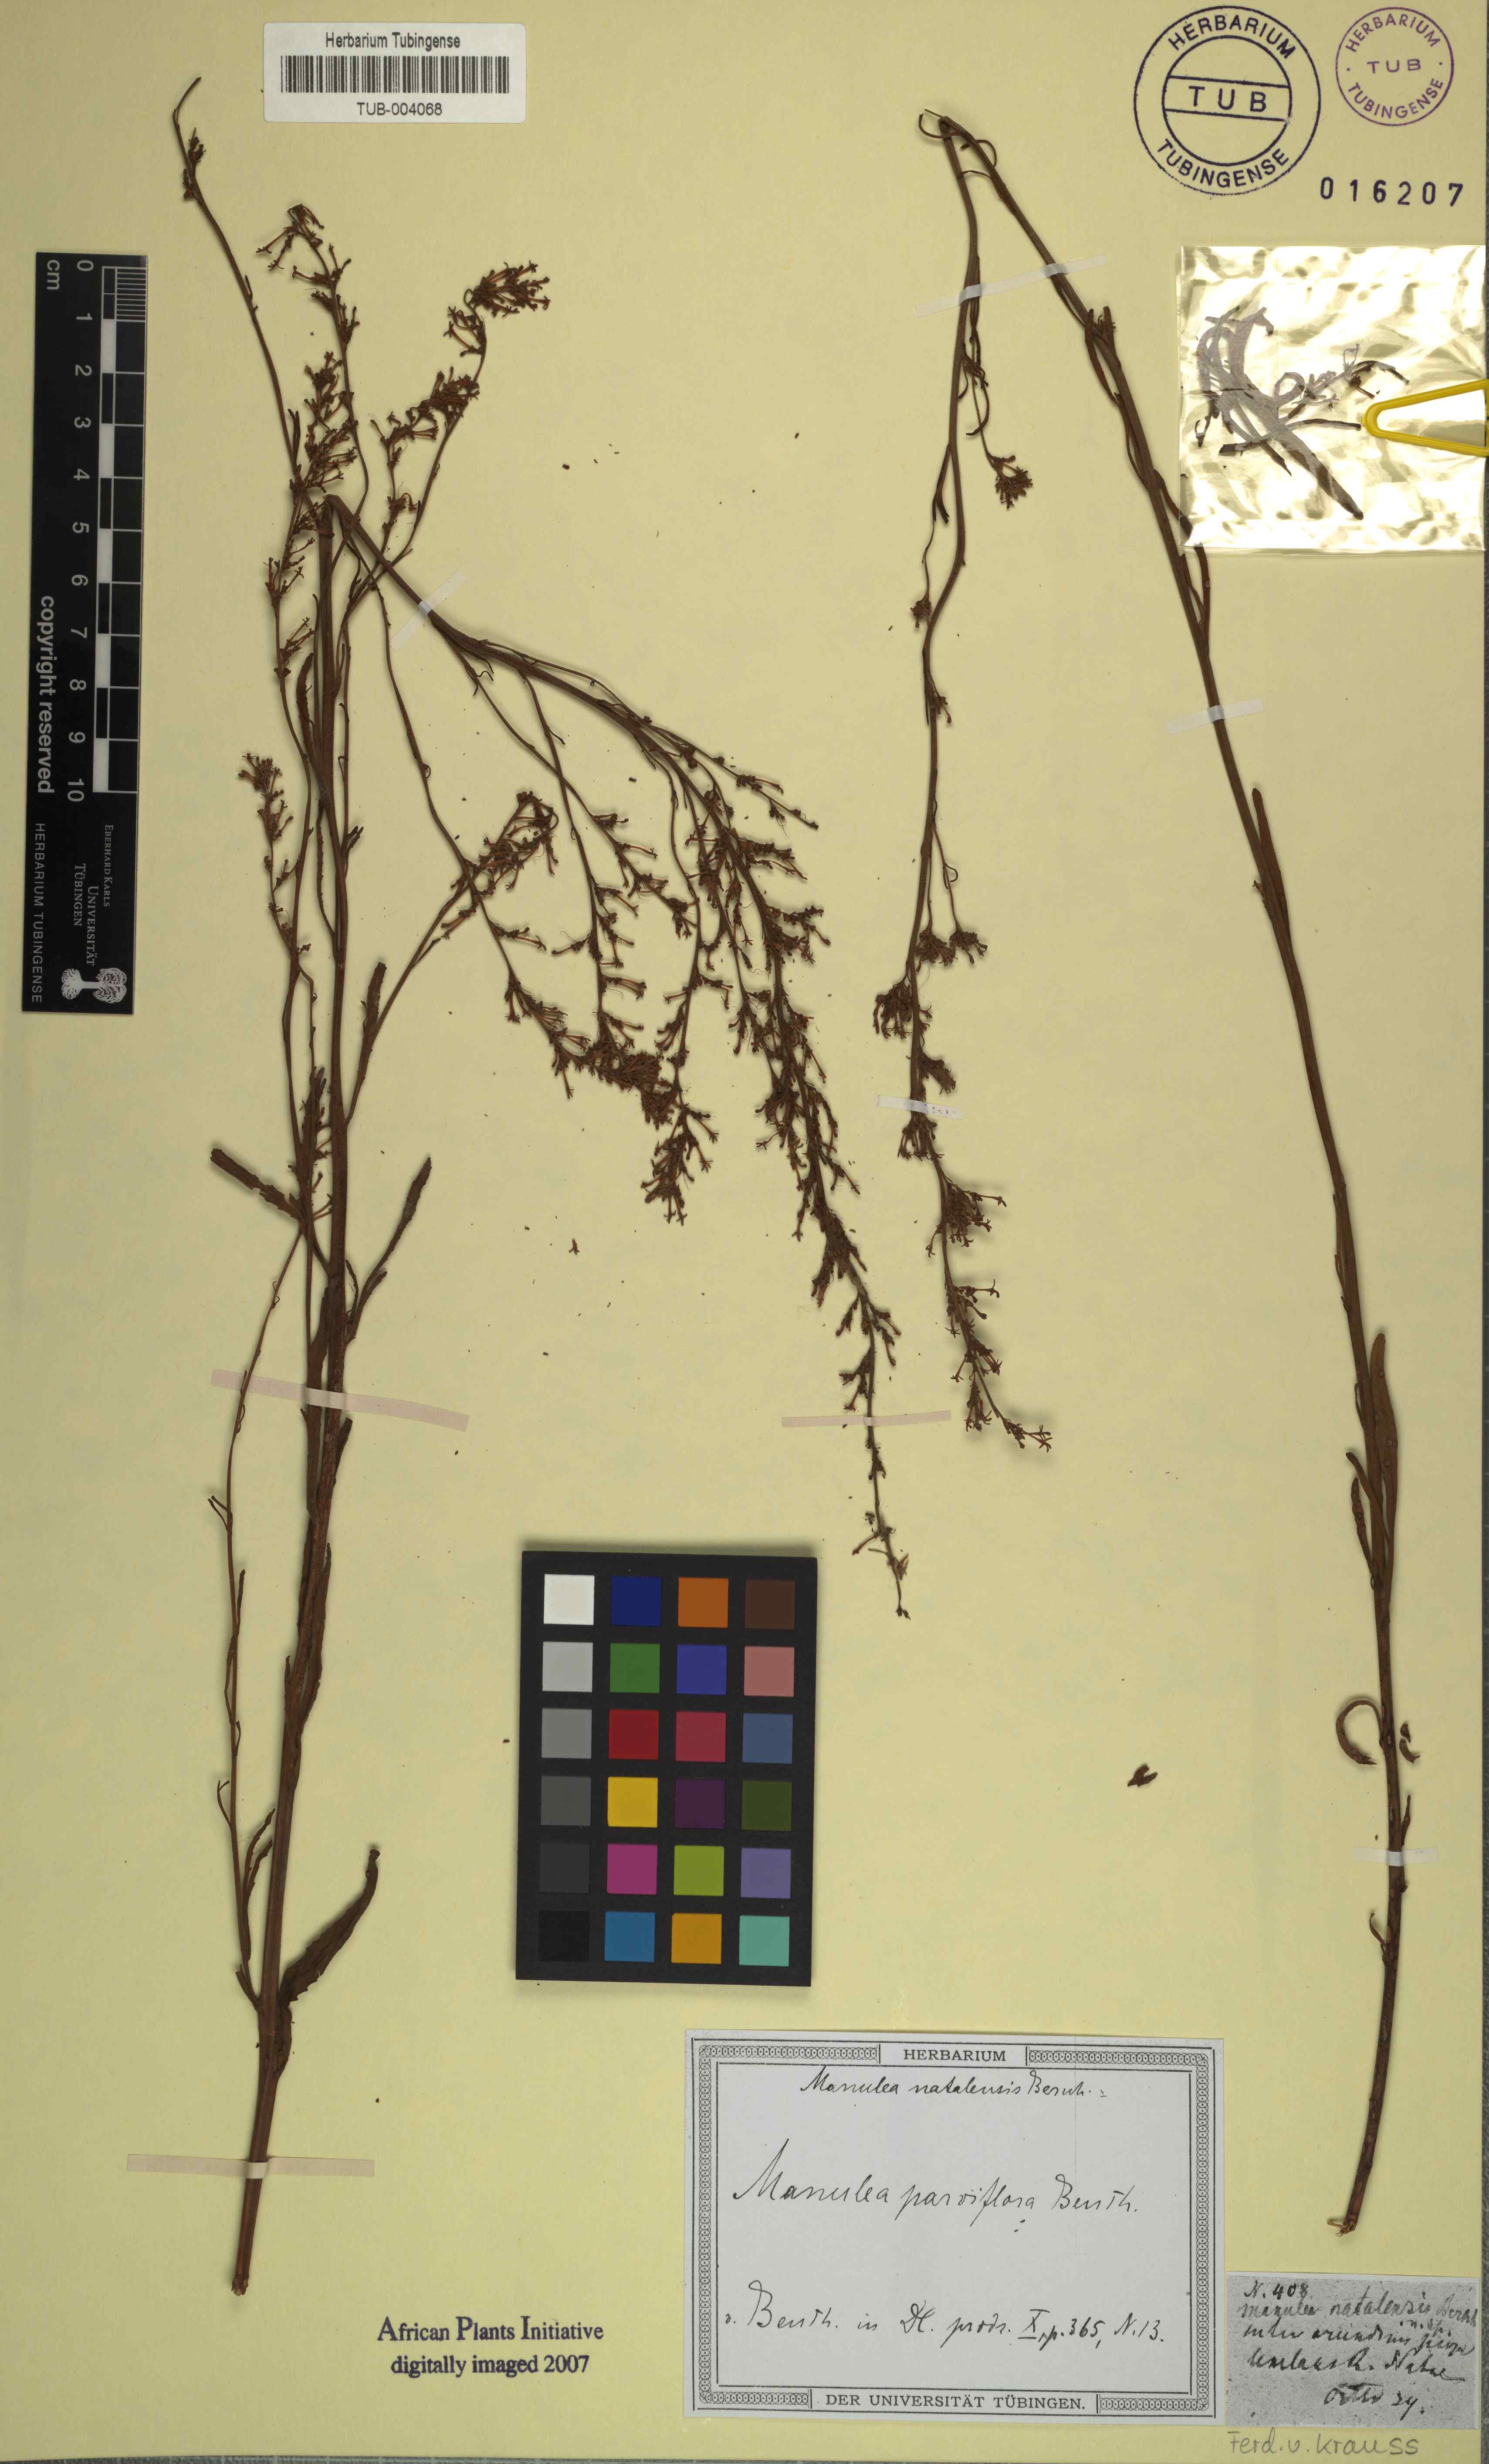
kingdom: Plantae
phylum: Tracheophyta
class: Magnoliopsida
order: Lamiales
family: Scrophulariaceae
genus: Manulea
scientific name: Manulea parviflora
